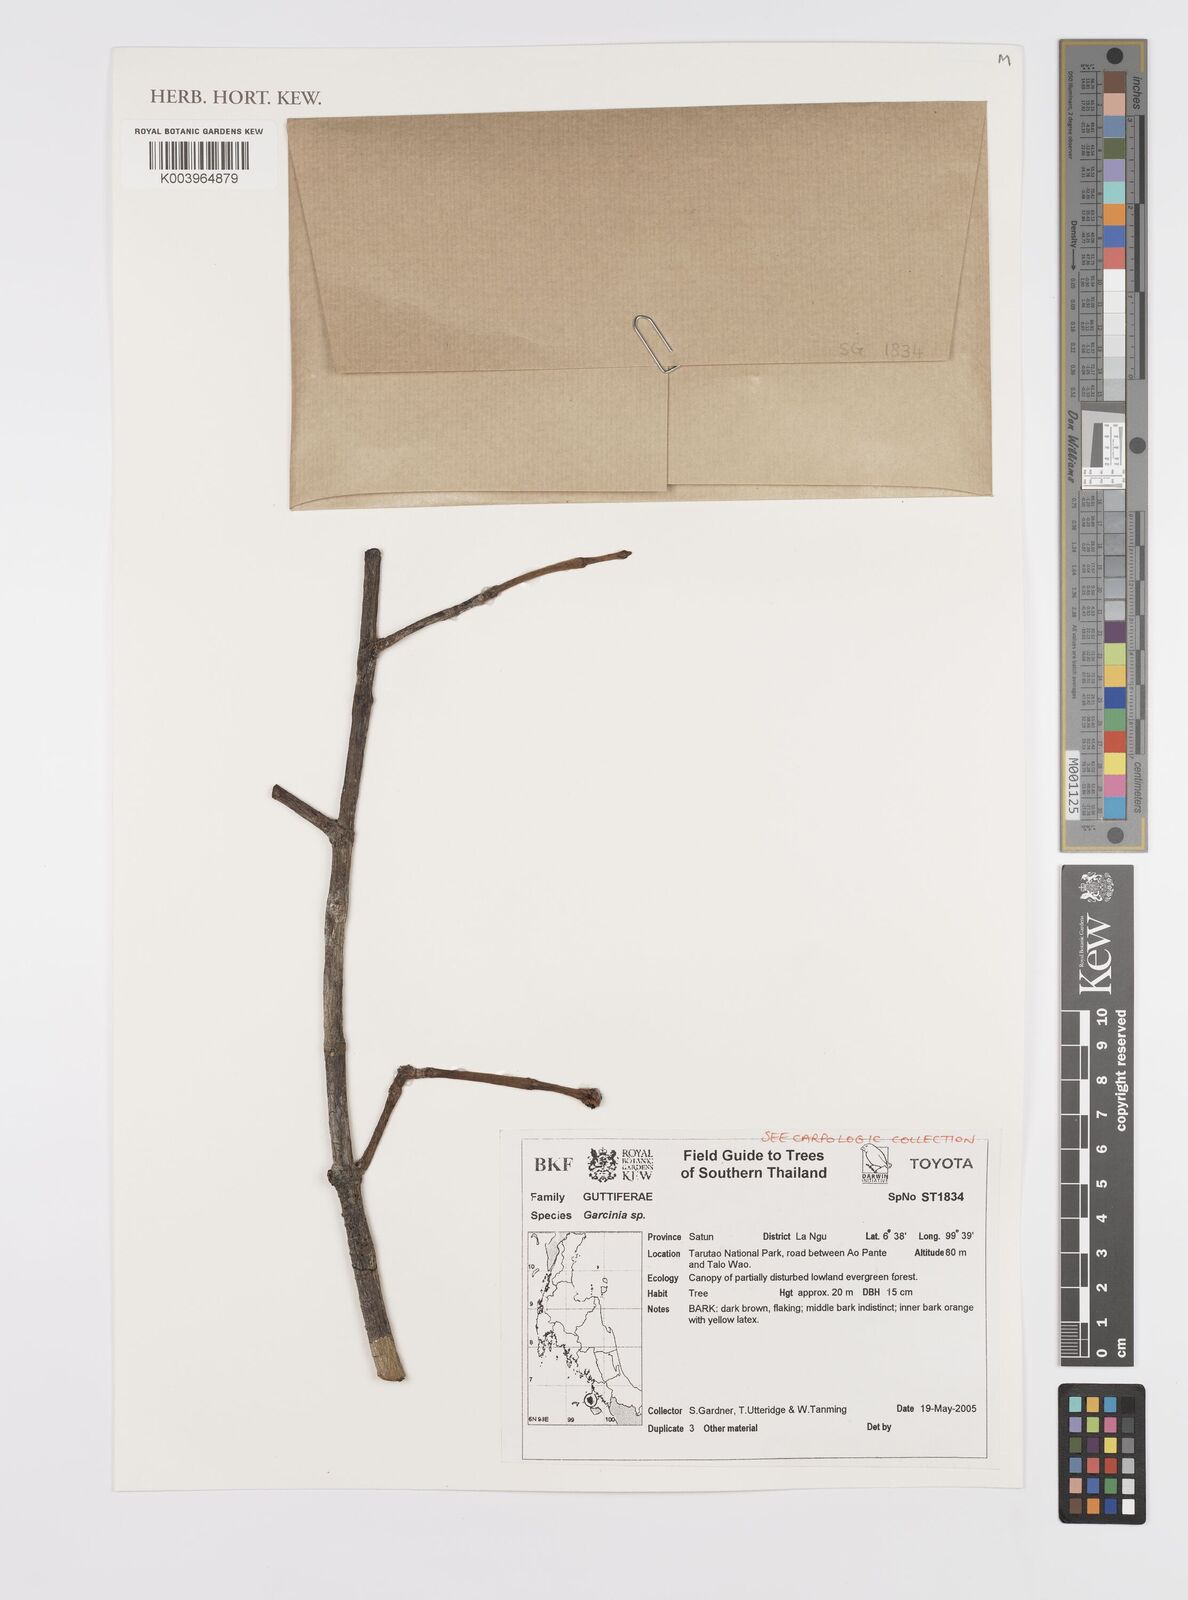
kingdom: Plantae
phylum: Tracheophyta
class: Magnoliopsida
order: Malpighiales
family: Clusiaceae
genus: Garcinia
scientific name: Garcinia
